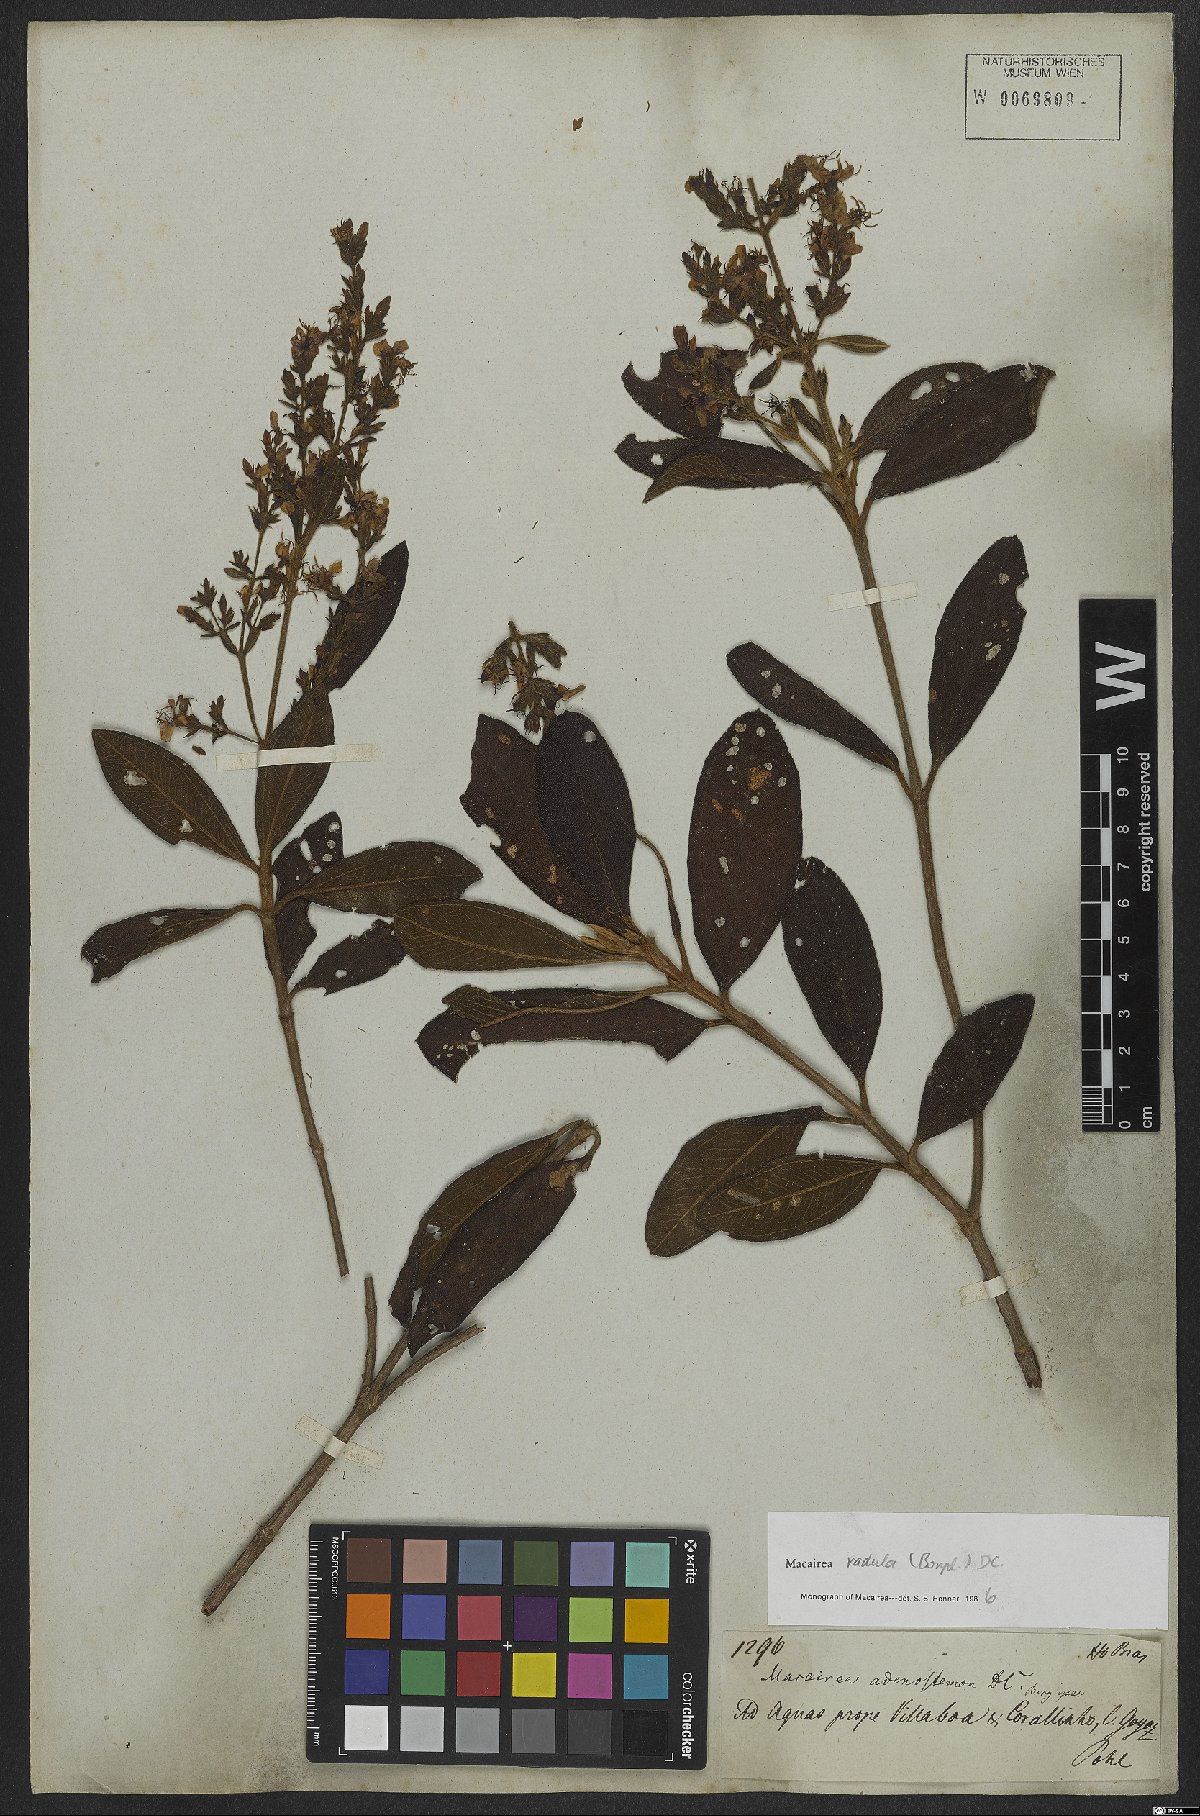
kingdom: Plantae
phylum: Tracheophyta
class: Magnoliopsida
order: Myrtales
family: Melastomataceae
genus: Macairea
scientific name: Macairea radula
